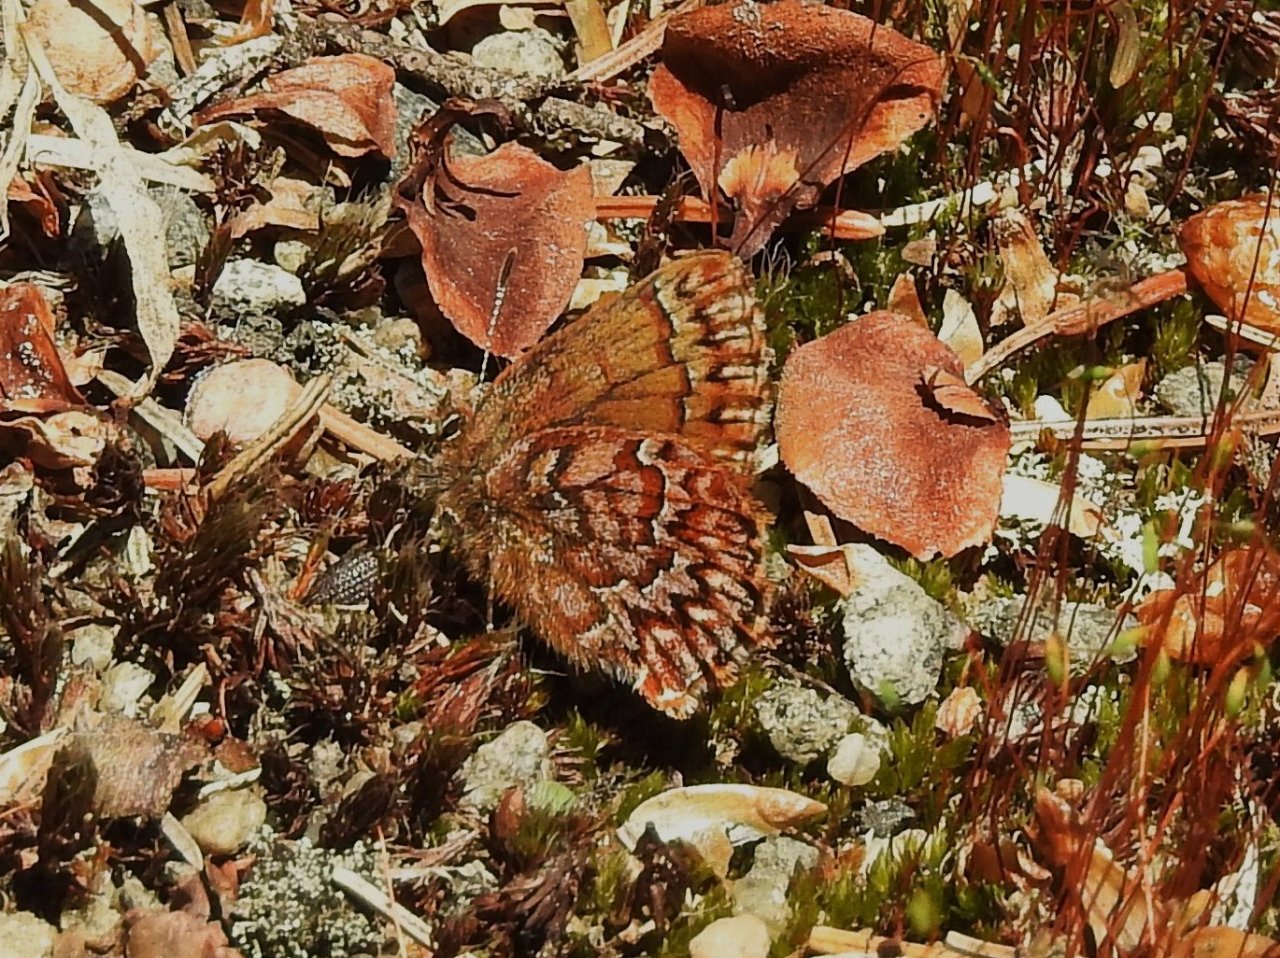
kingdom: Animalia
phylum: Arthropoda
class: Insecta
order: Lepidoptera
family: Lycaenidae
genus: Incisalia
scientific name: Incisalia eryphon
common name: Western Pine Elfin
